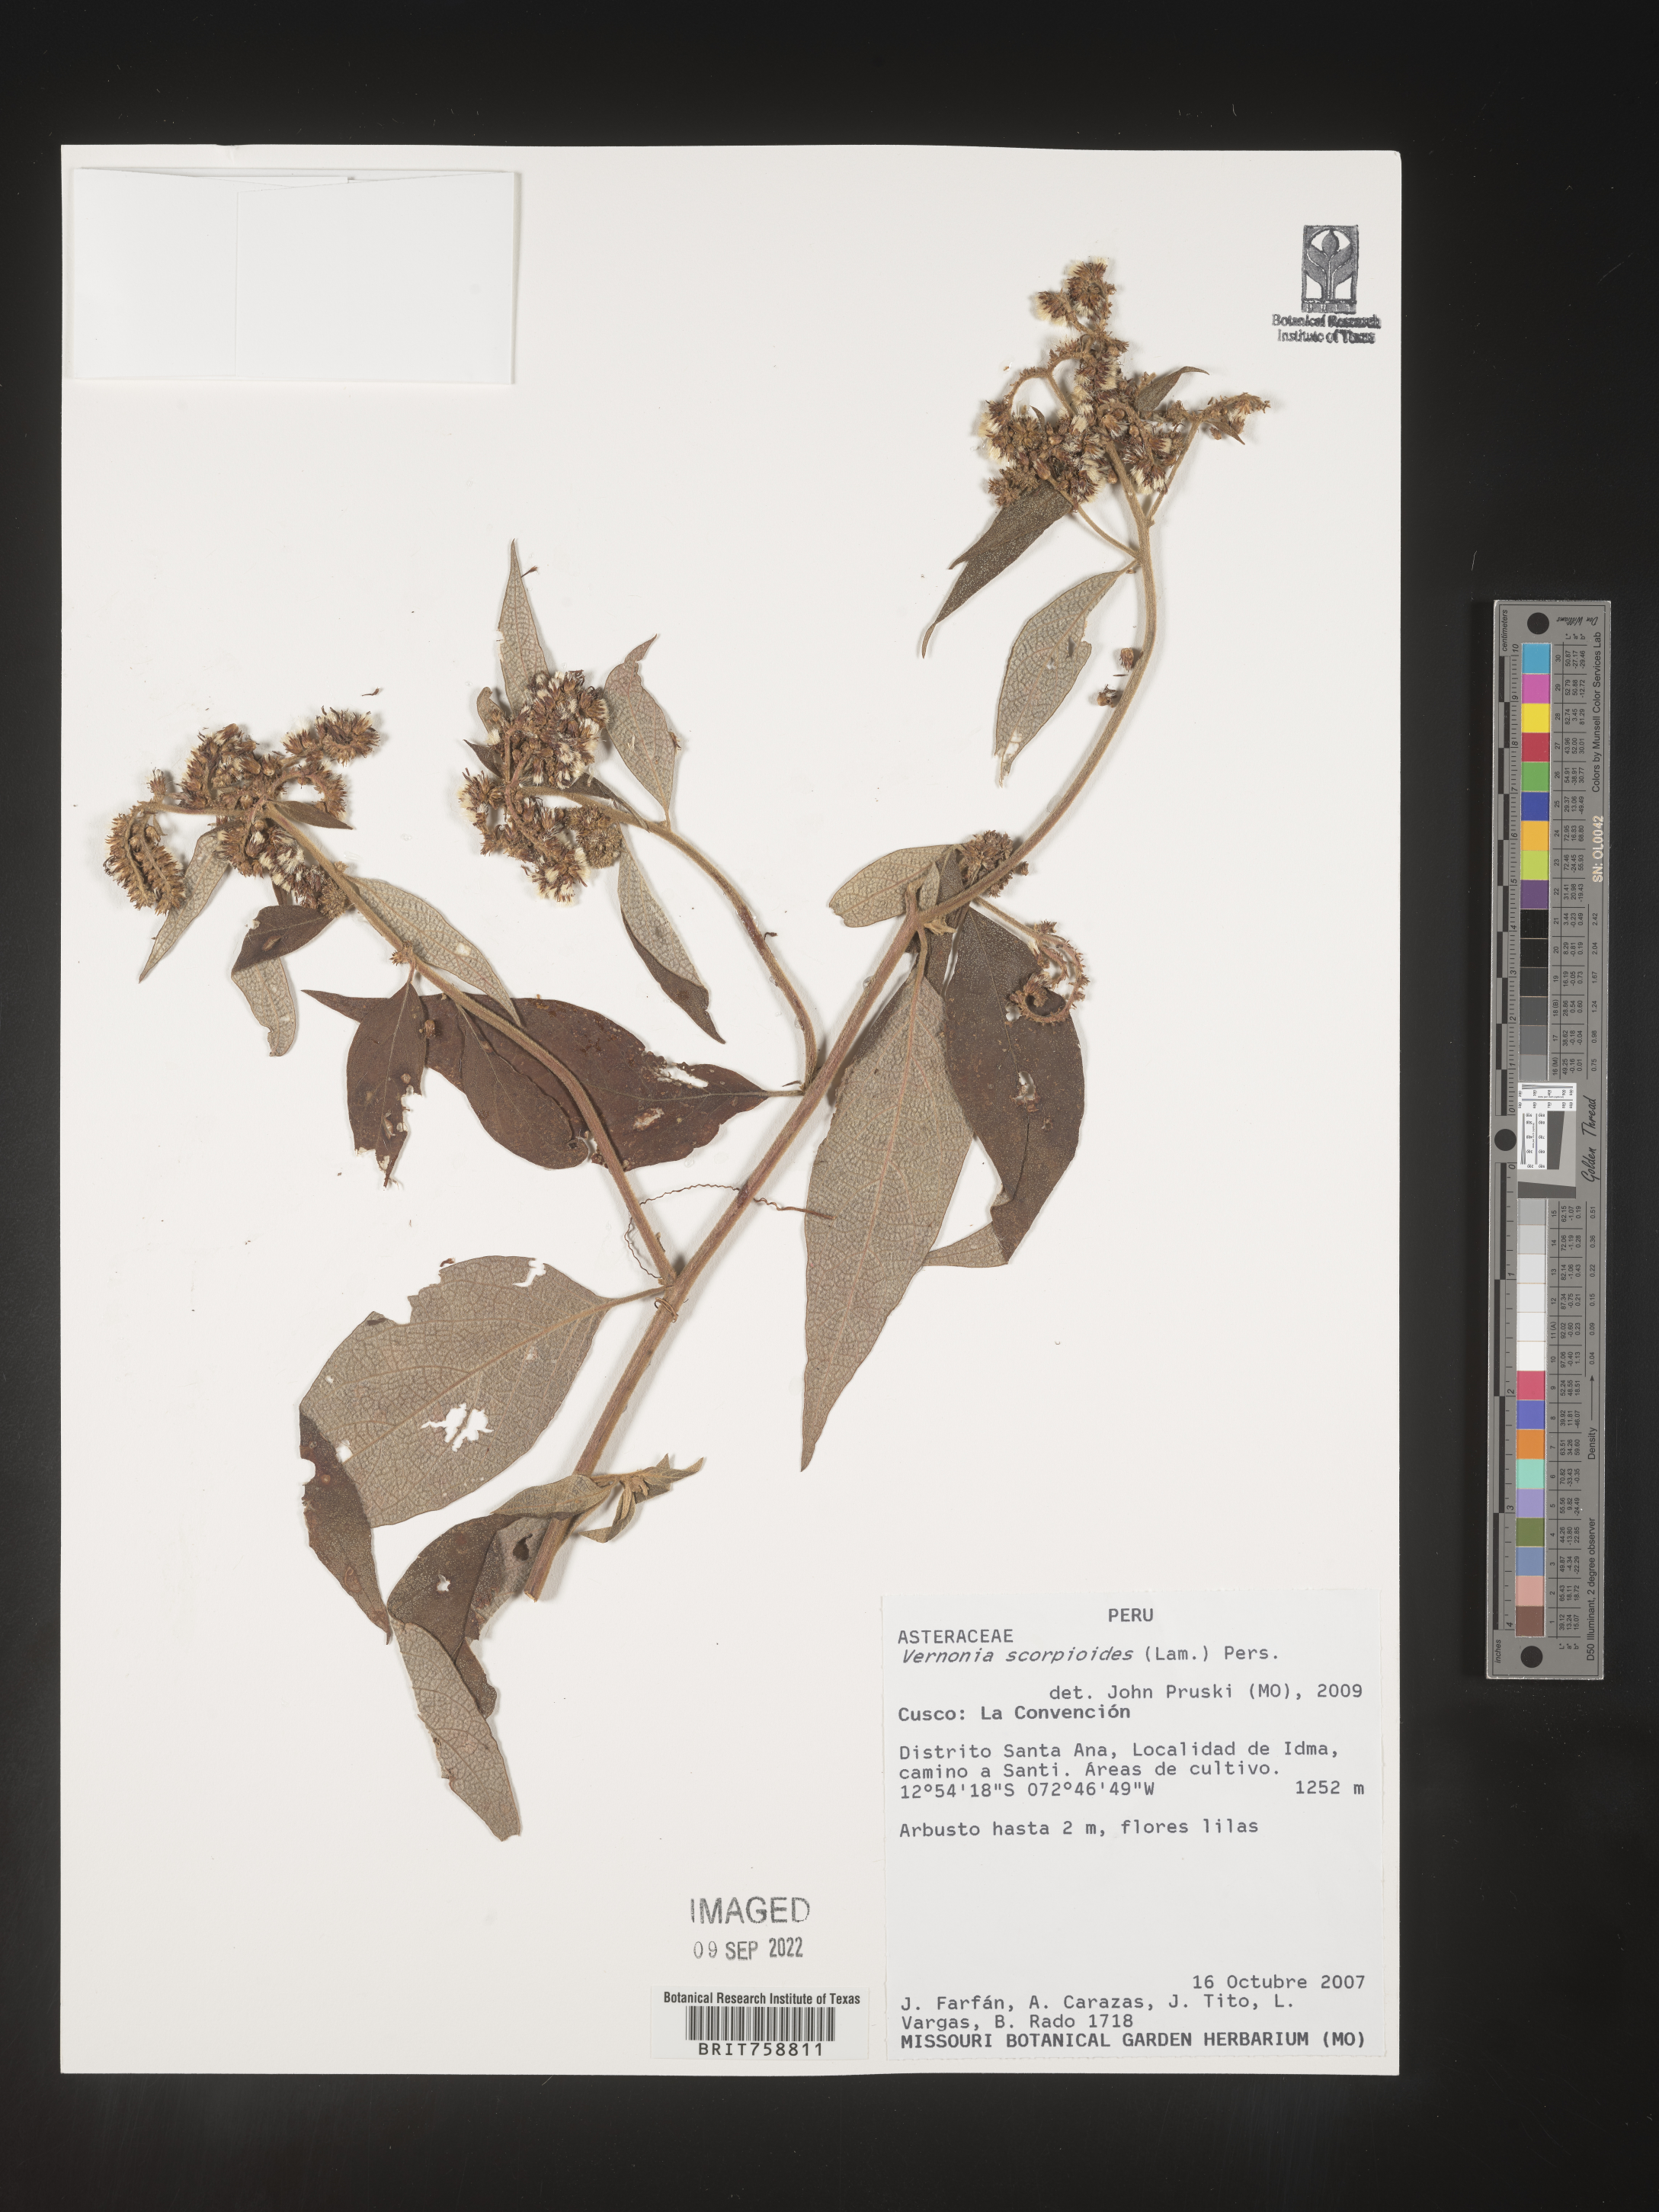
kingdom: Plantae
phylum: Tracheophyta
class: Magnoliopsida
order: Asterales
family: Asteraceae
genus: Vernonia
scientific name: Vernonia
